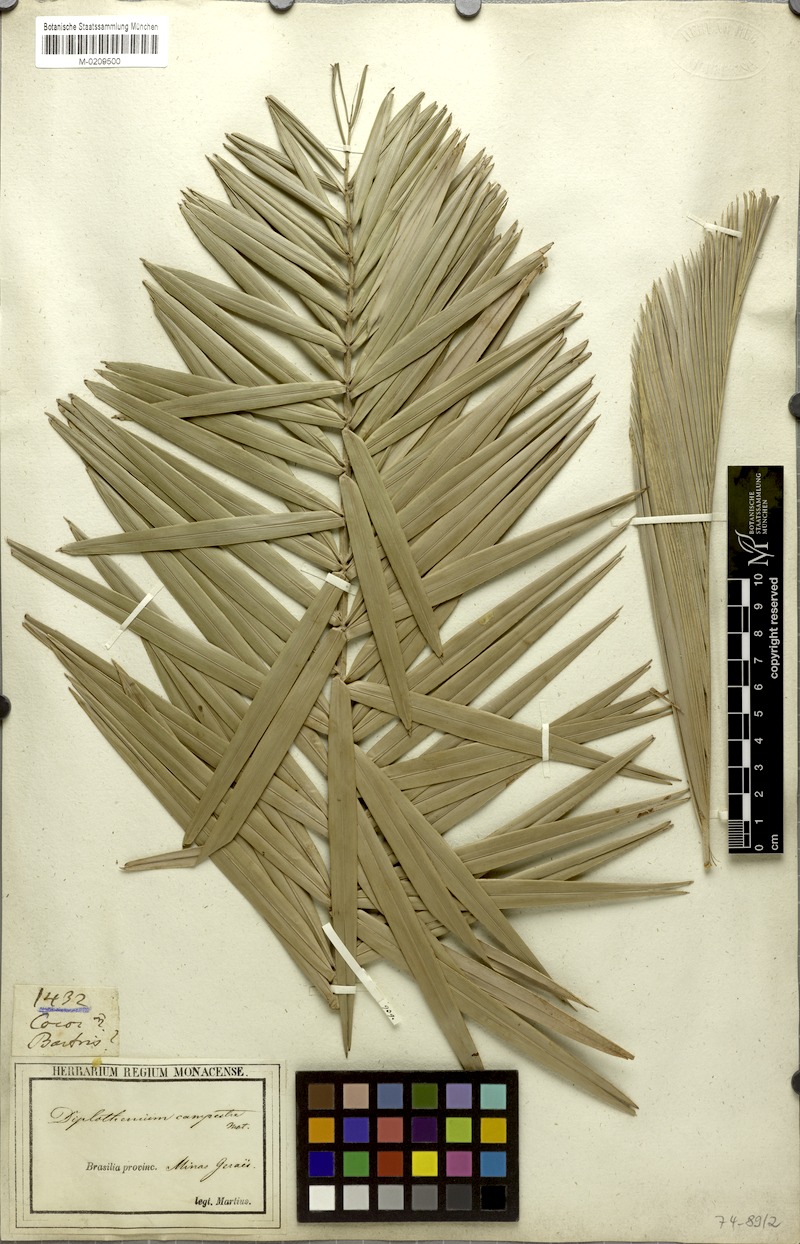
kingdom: Plantae
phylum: Tracheophyta
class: Liliopsida
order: Arecales
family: Arecaceae
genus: Allagoptera
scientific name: Allagoptera campestris
